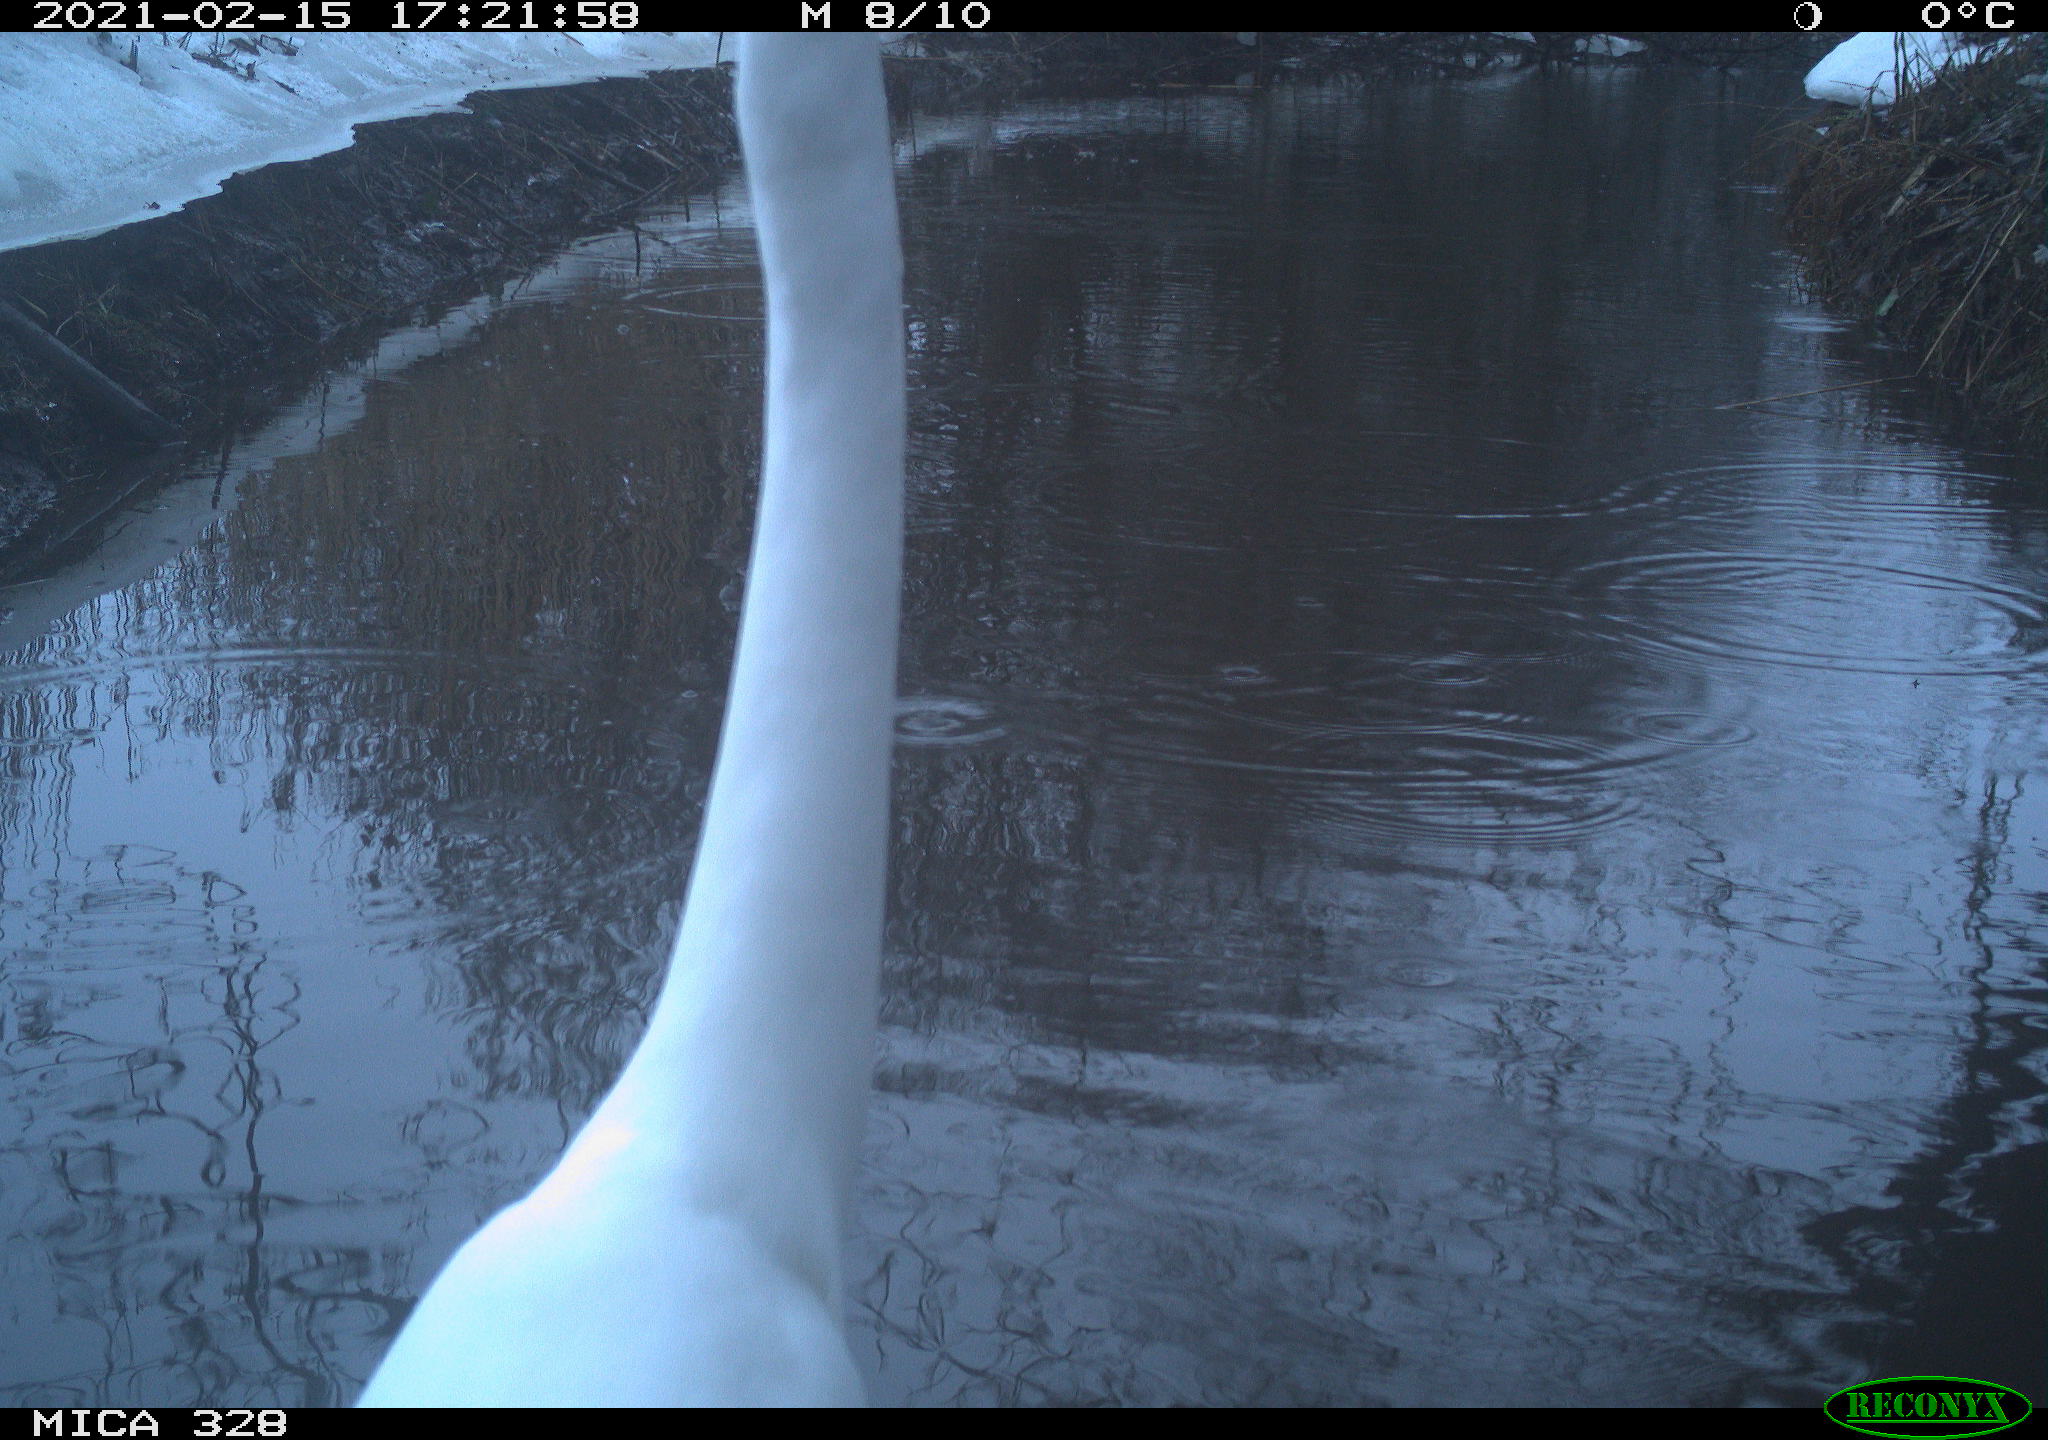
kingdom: Animalia
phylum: Chordata
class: Aves
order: Pelecaniformes
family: Ardeidae
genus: Ardea
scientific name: Ardea alba
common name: Great egret
